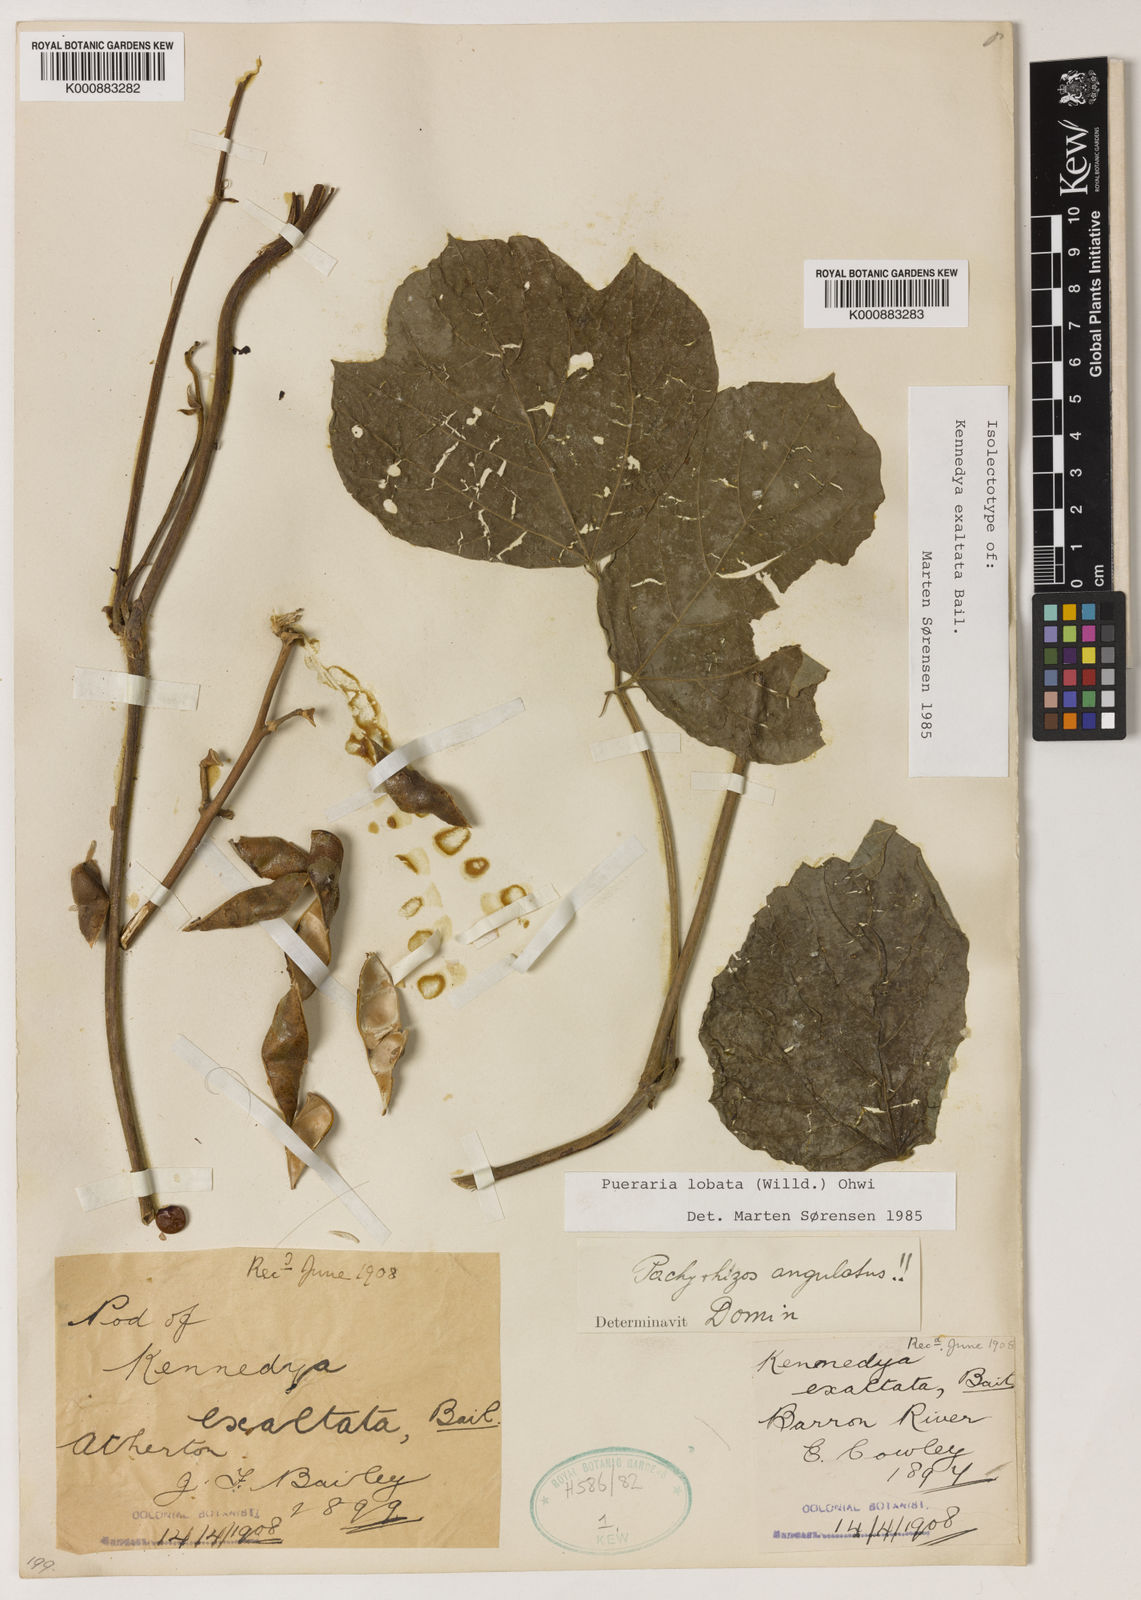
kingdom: Plantae
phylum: Tracheophyta
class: Magnoliopsida
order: Fabales
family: Fabaceae
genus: Pueraria
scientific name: Pueraria montana
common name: Kudzu
